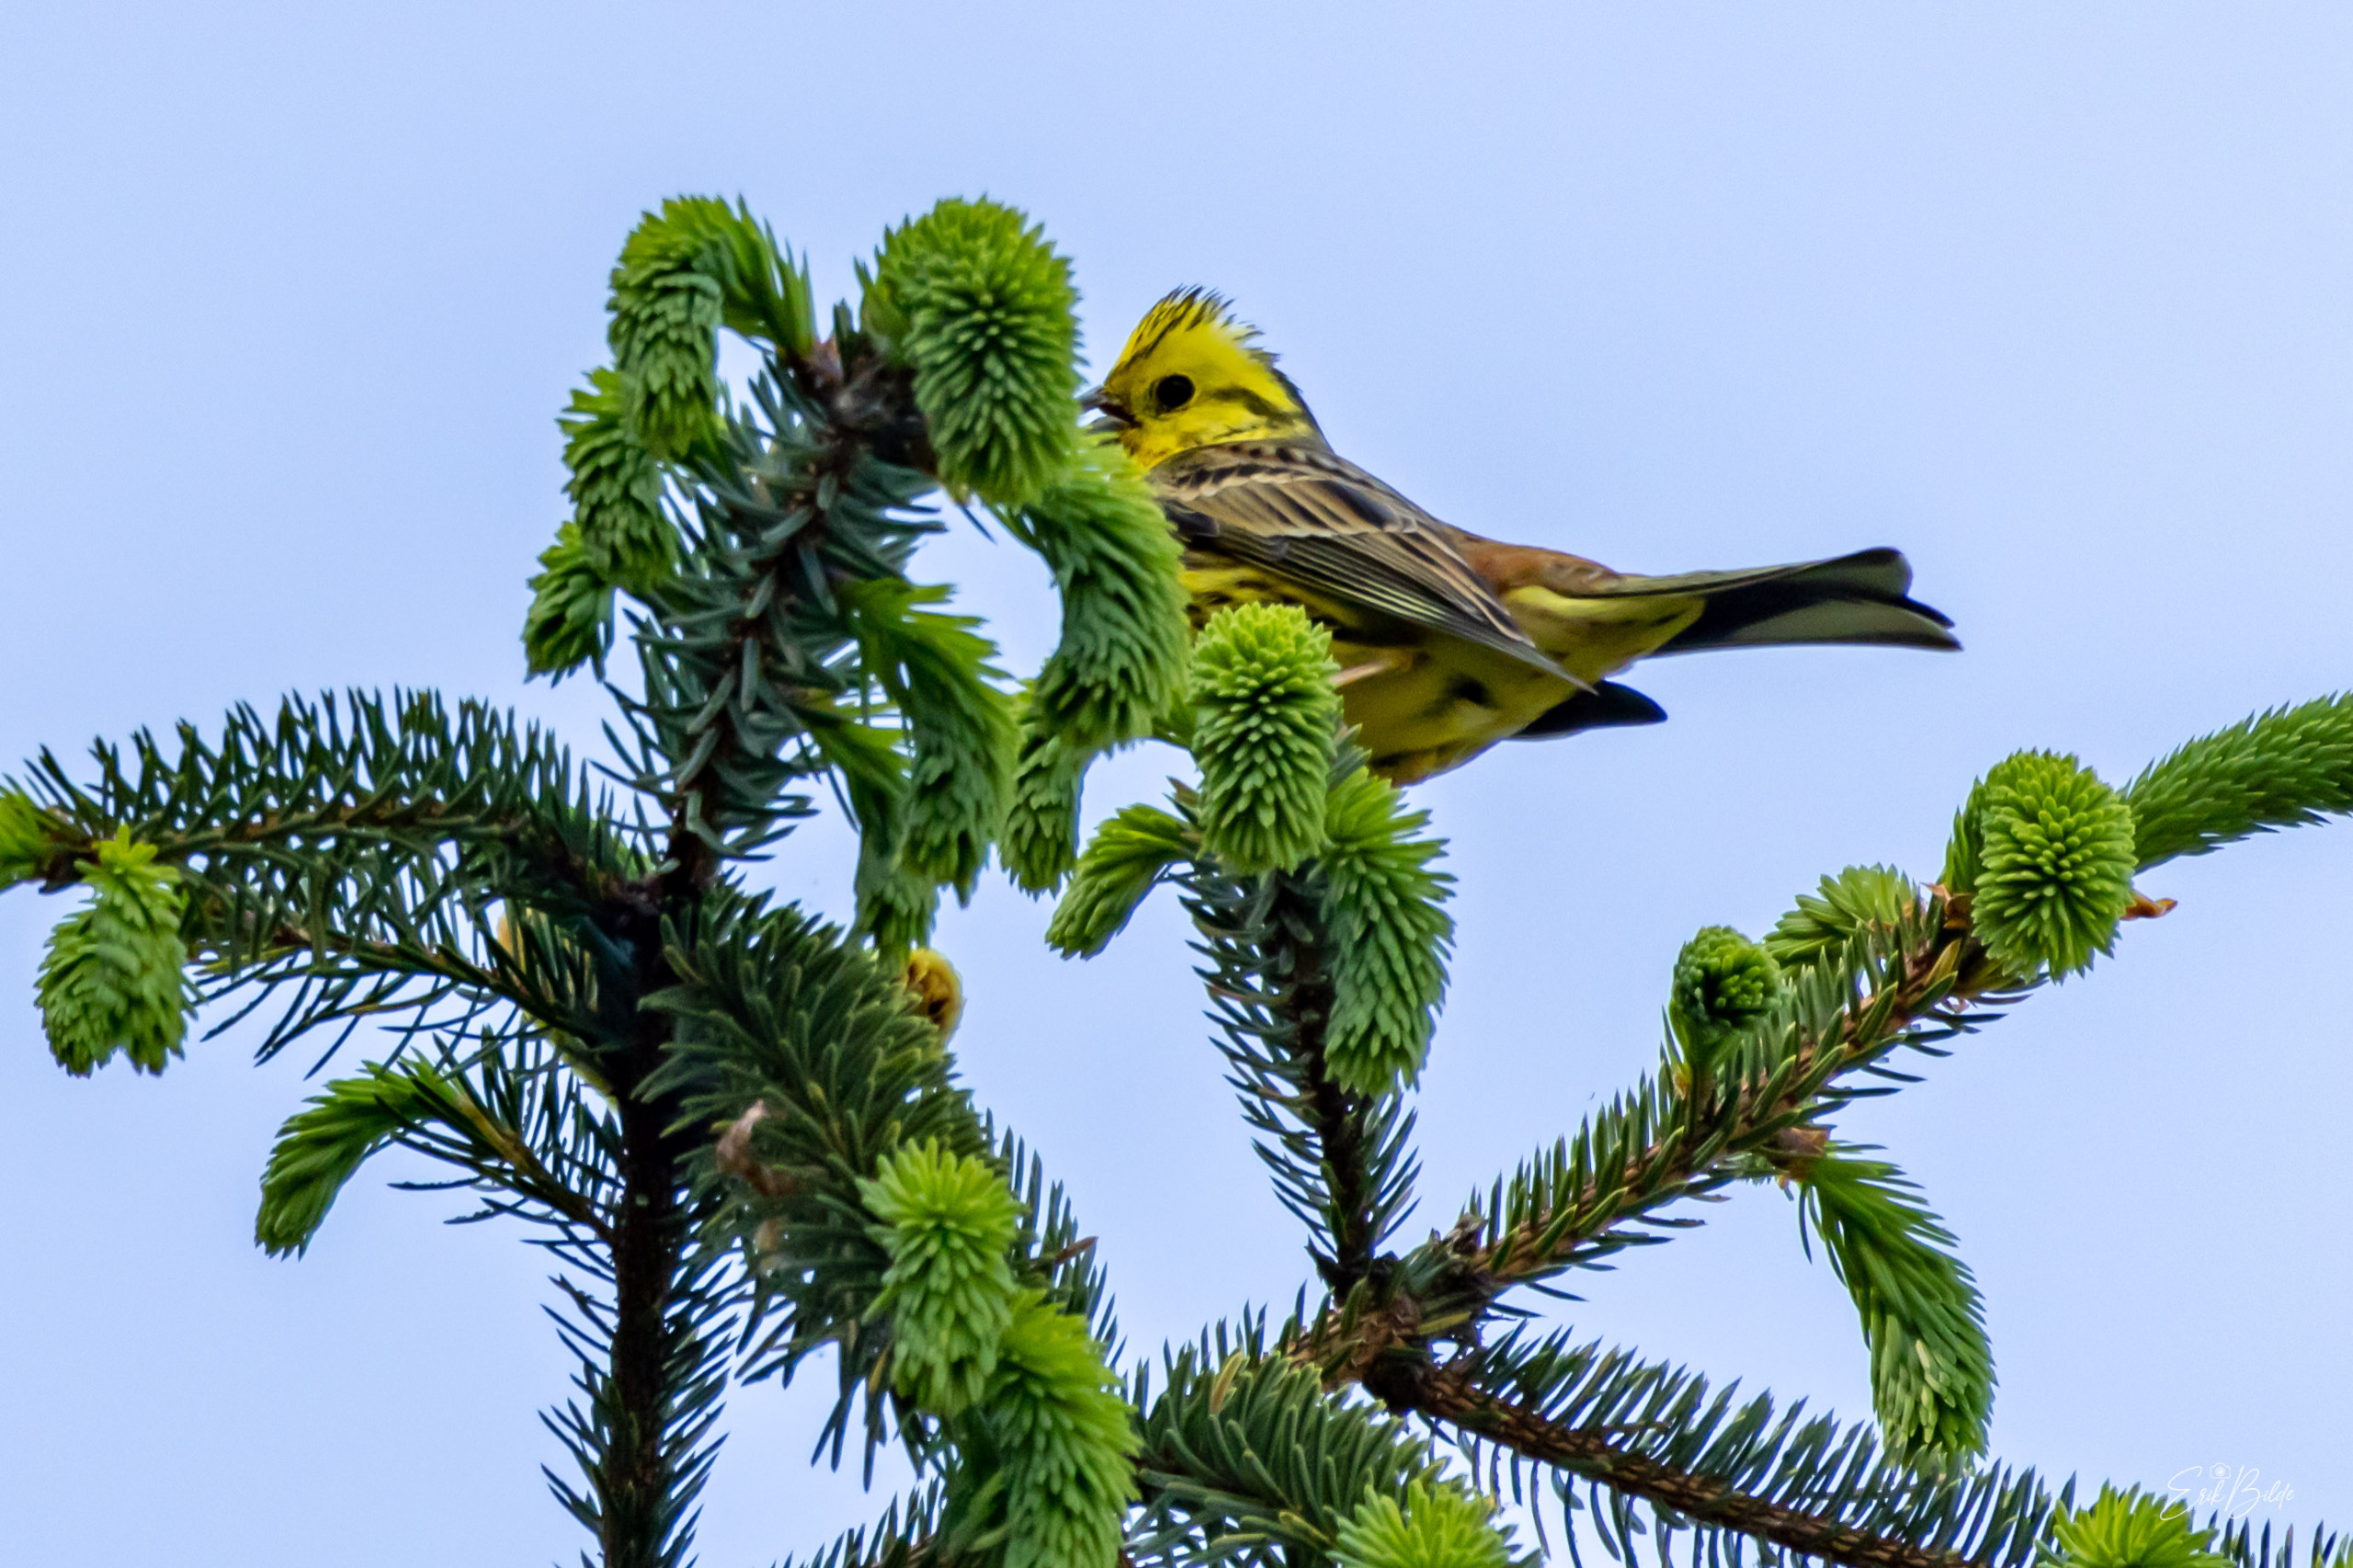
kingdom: Animalia
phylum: Chordata
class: Aves
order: Passeriformes
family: Emberizidae
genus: Emberiza
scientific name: Emberiza citrinella
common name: Gulspurv
